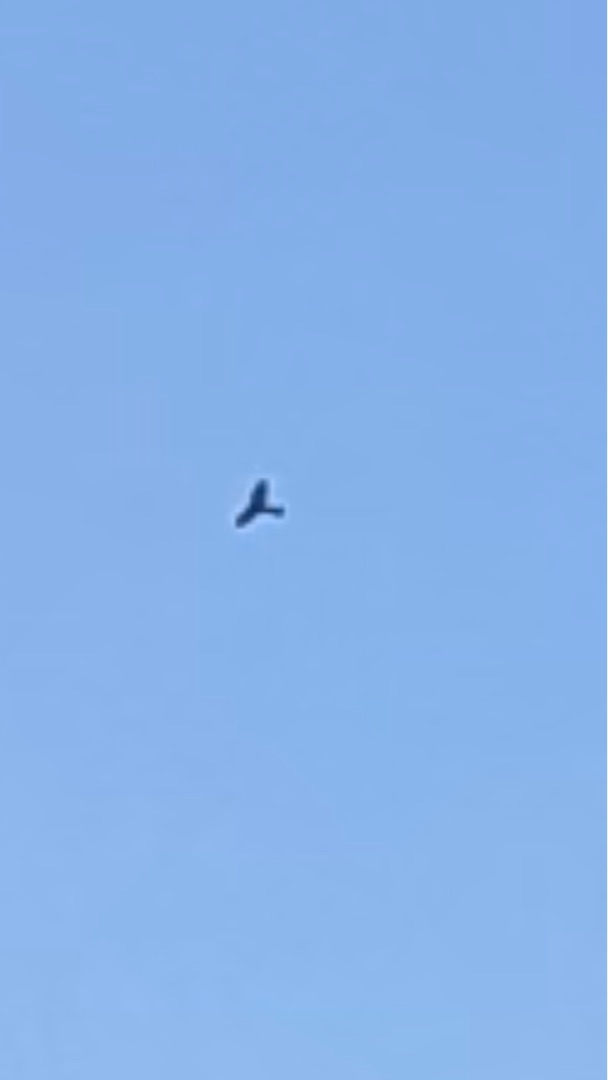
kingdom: Animalia
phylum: Chordata
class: Aves
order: Accipitriformes
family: Accipitridae
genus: Milvus
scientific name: Milvus milvus
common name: Rød glente
